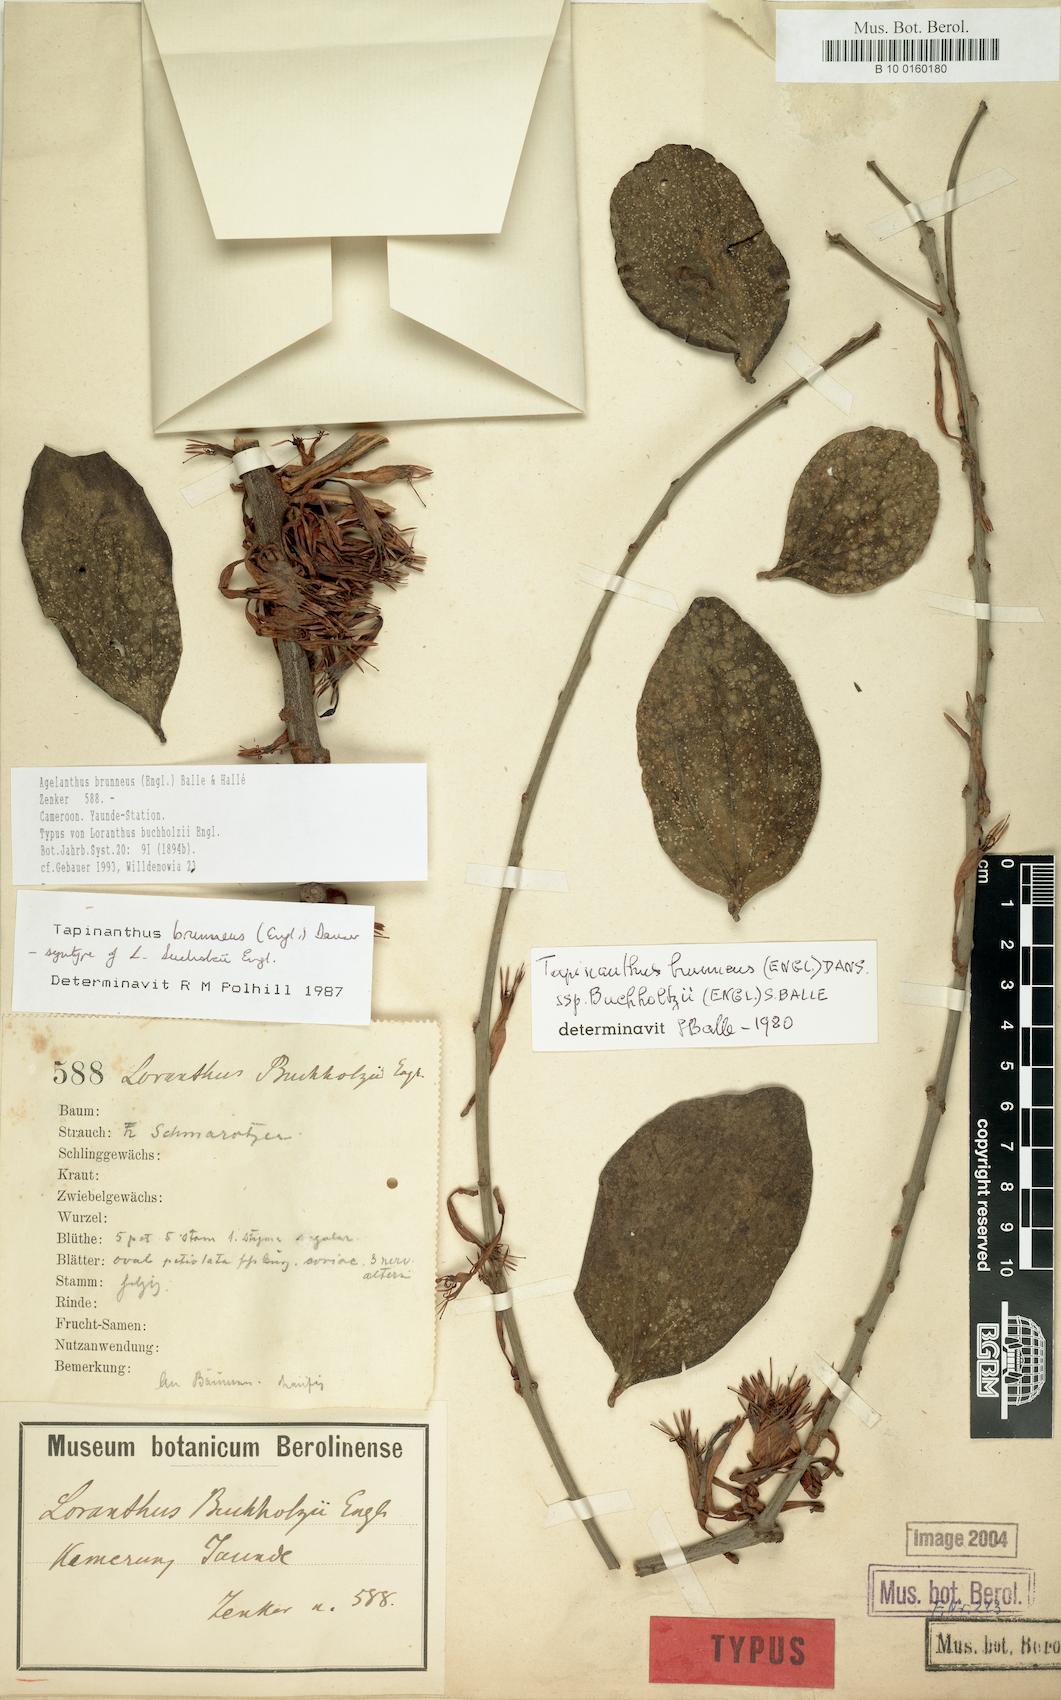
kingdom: Plantae
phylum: Tracheophyta
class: Magnoliopsida
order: Santalales
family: Loranthaceae
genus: Agelanthus
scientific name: Agelanthus brunneus
